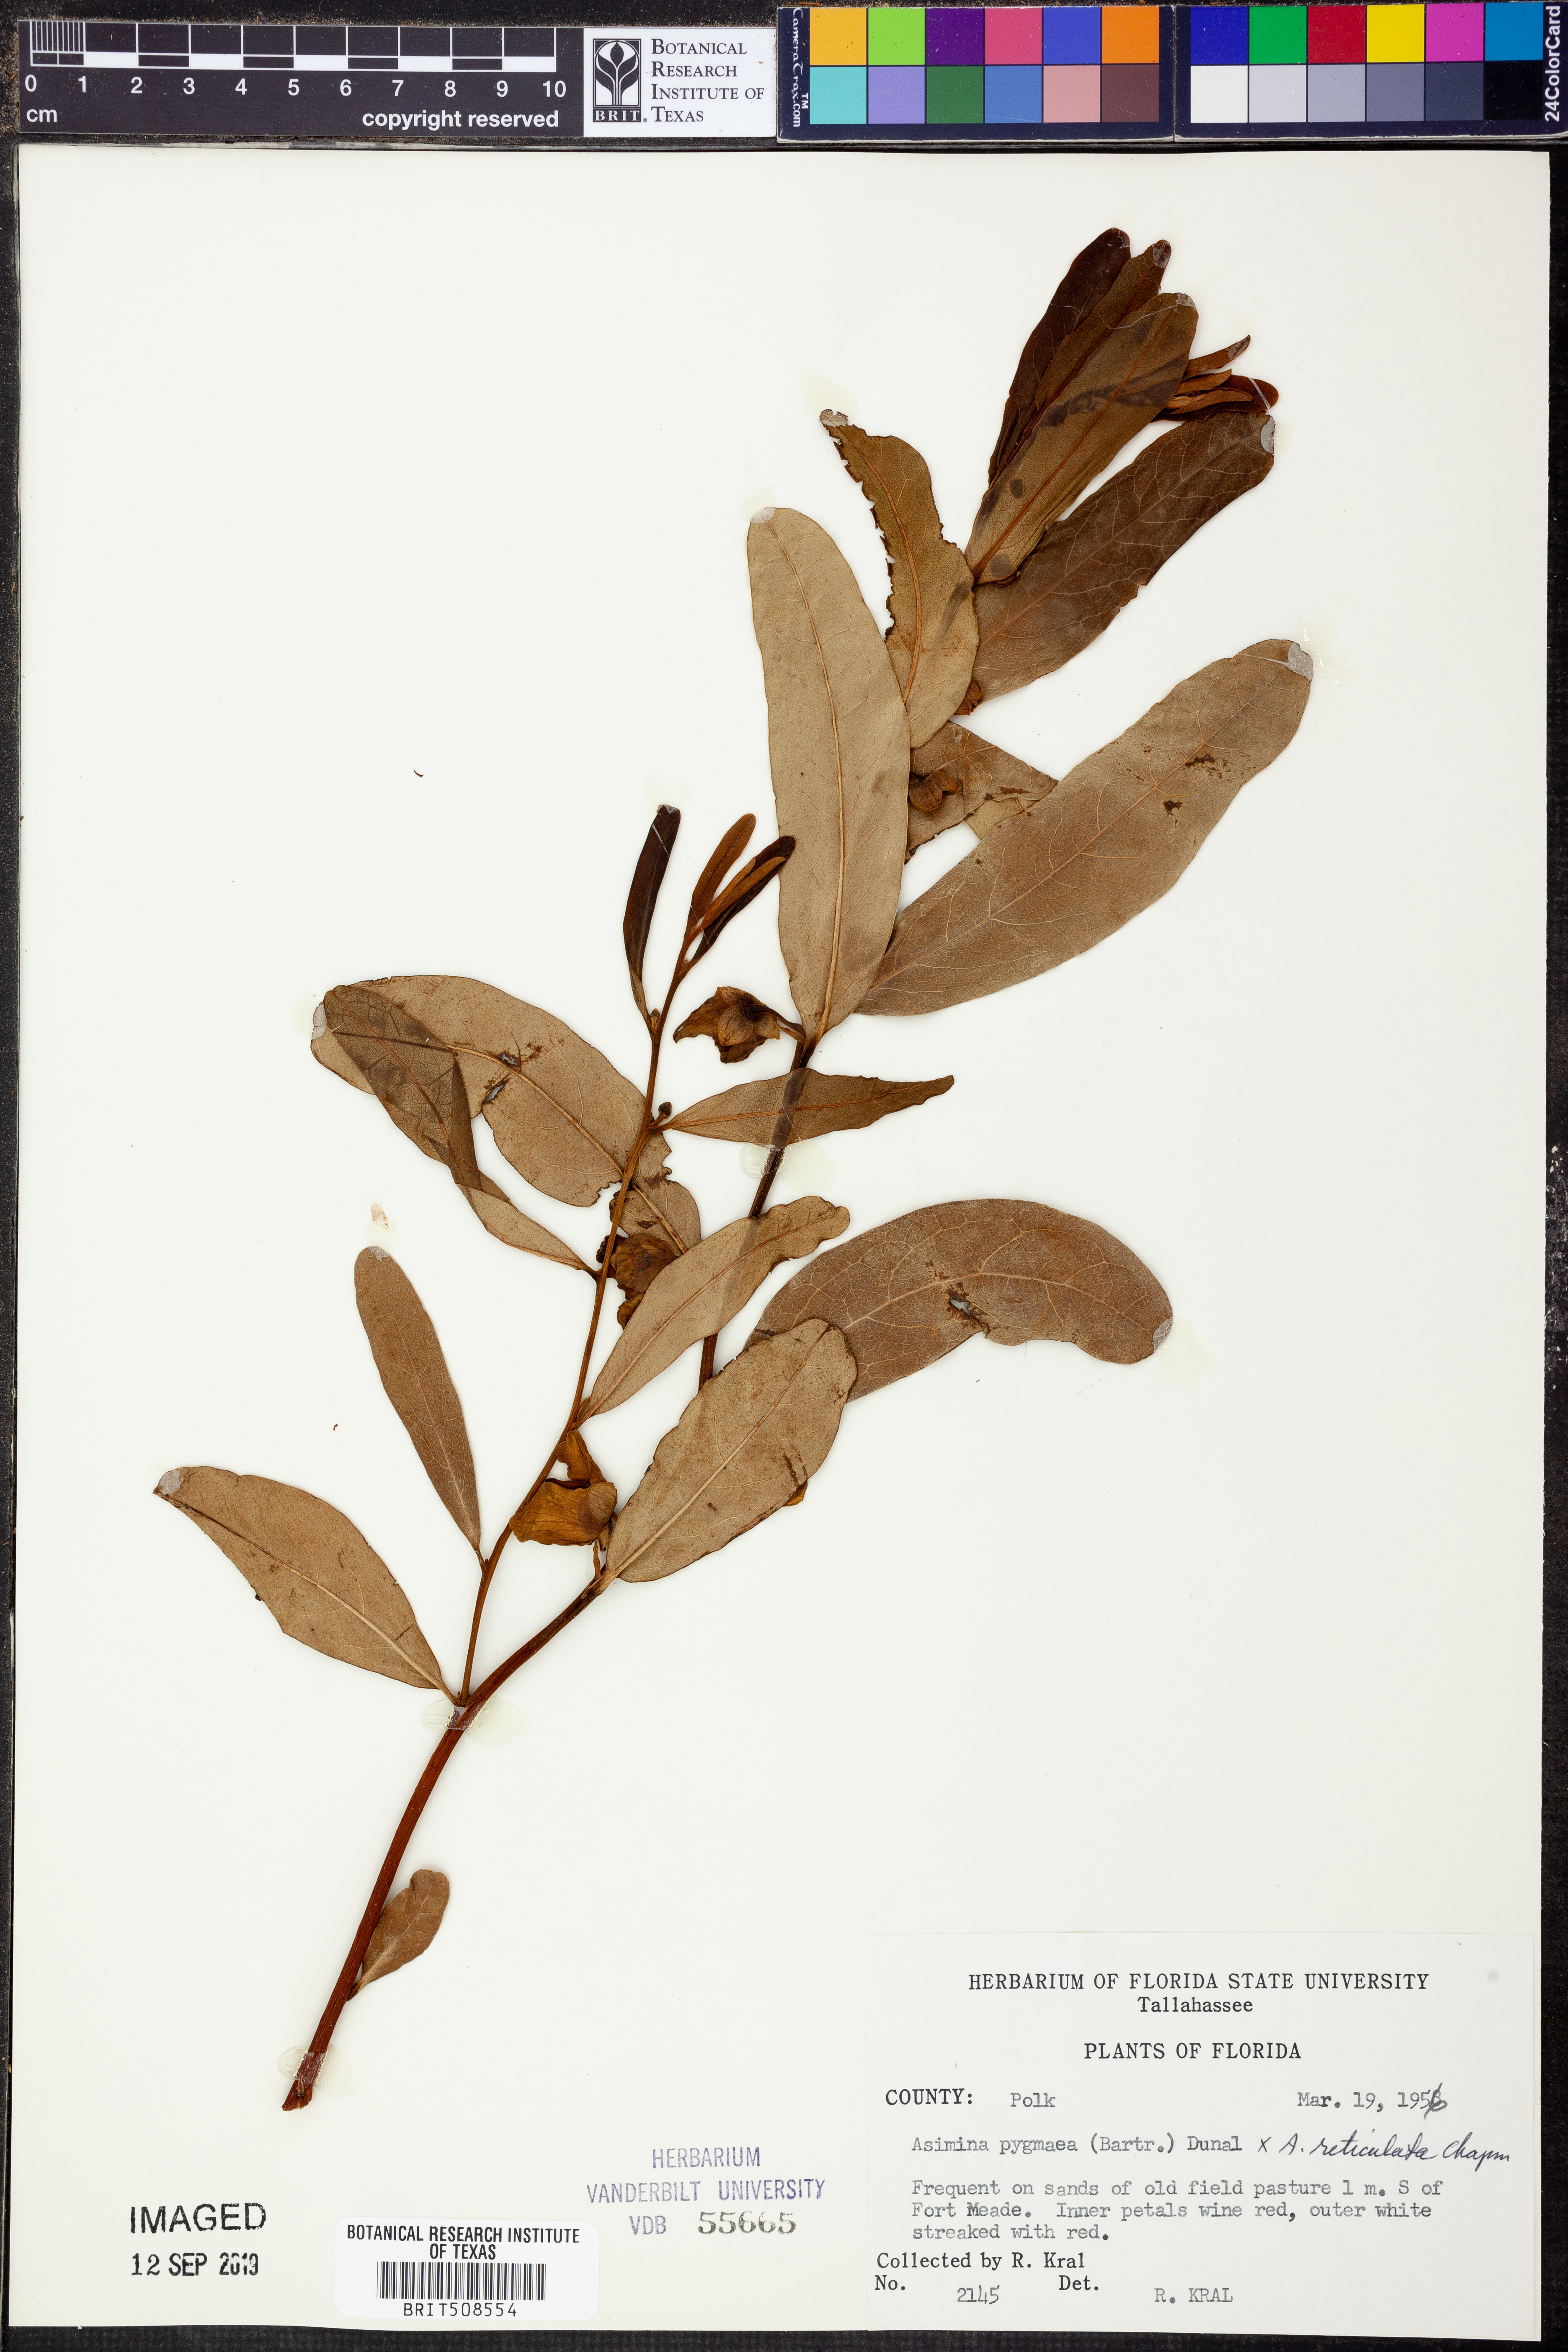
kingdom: Plantae
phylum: Tracheophyta
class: Magnoliopsida
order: Magnoliales
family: Annonaceae
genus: Asimina
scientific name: Asimina pygmaea
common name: Dwarf pawpaw
